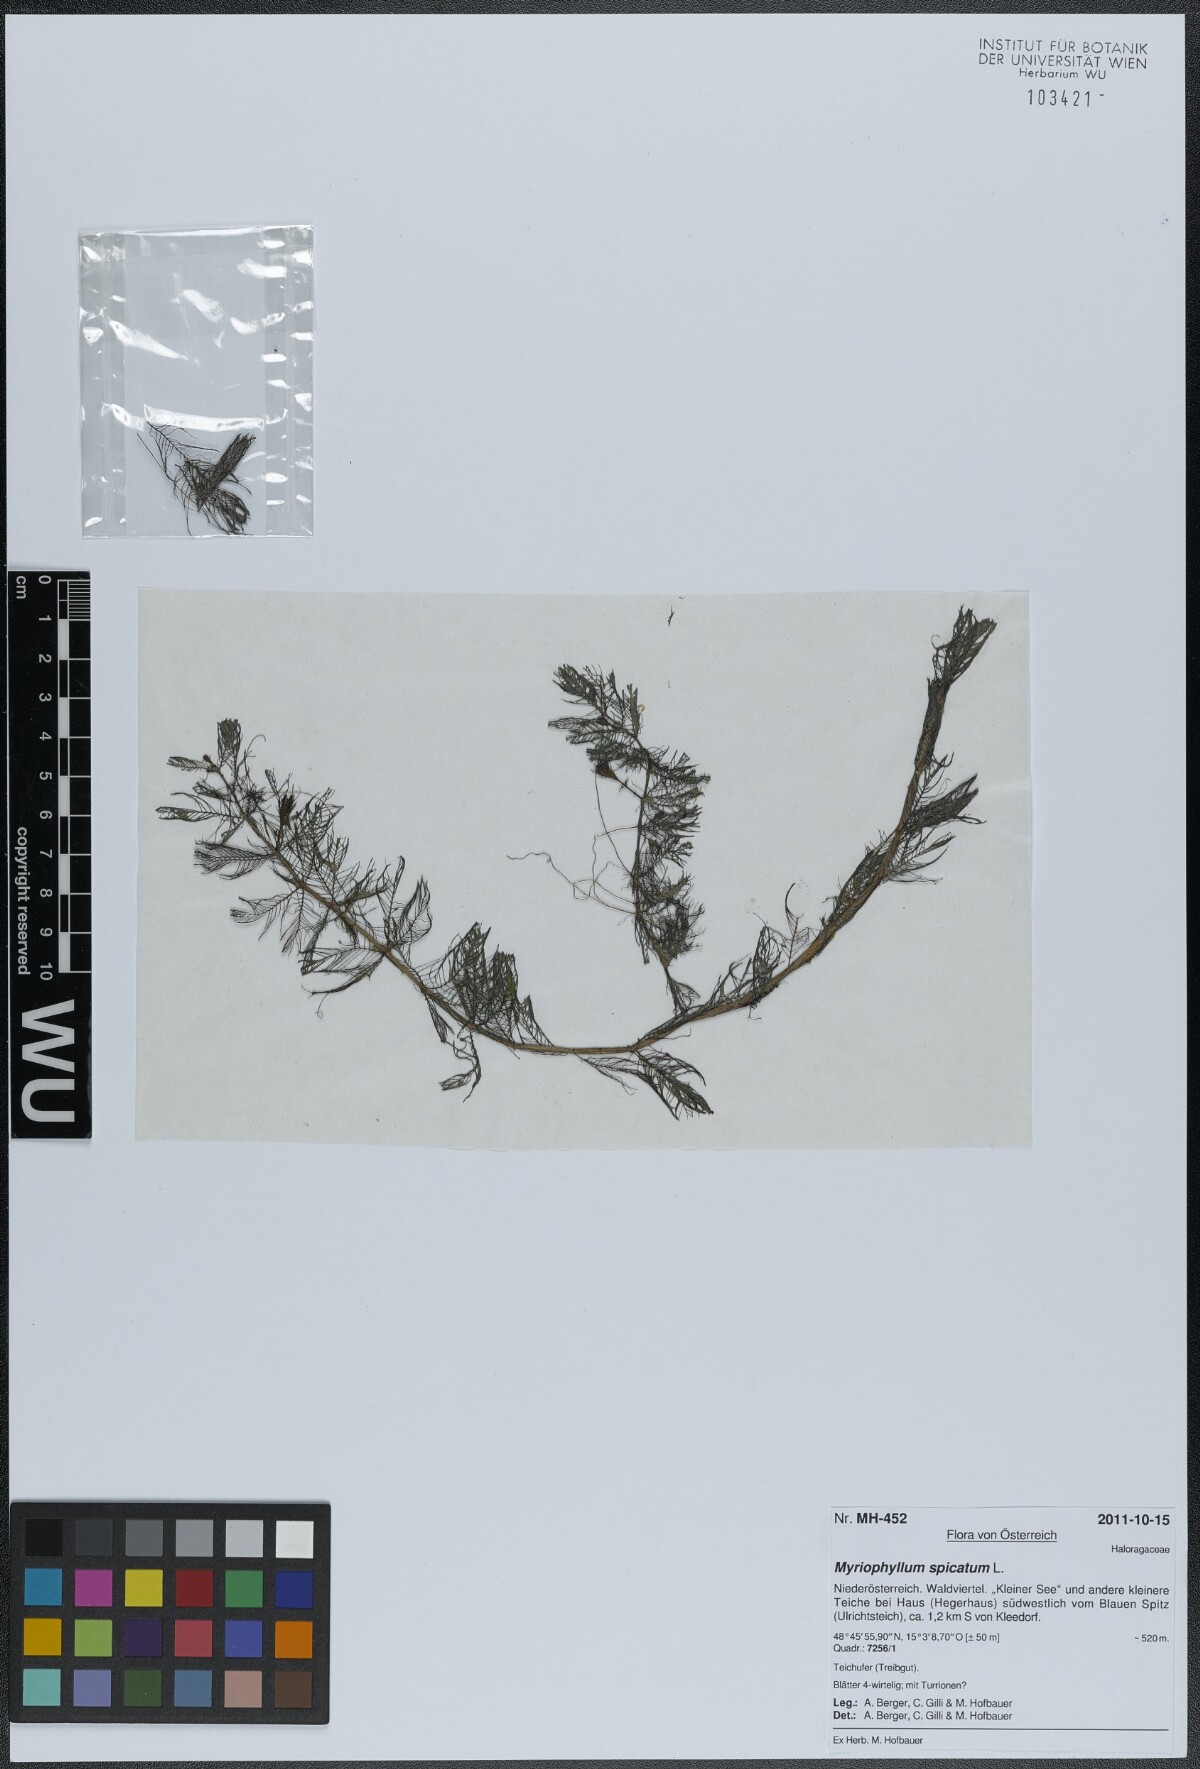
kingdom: Plantae
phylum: Tracheophyta
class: Magnoliopsida
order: Saxifragales
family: Haloragaceae
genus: Myriophyllum
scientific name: Myriophyllum spicatum
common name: Spiked water-milfoil
